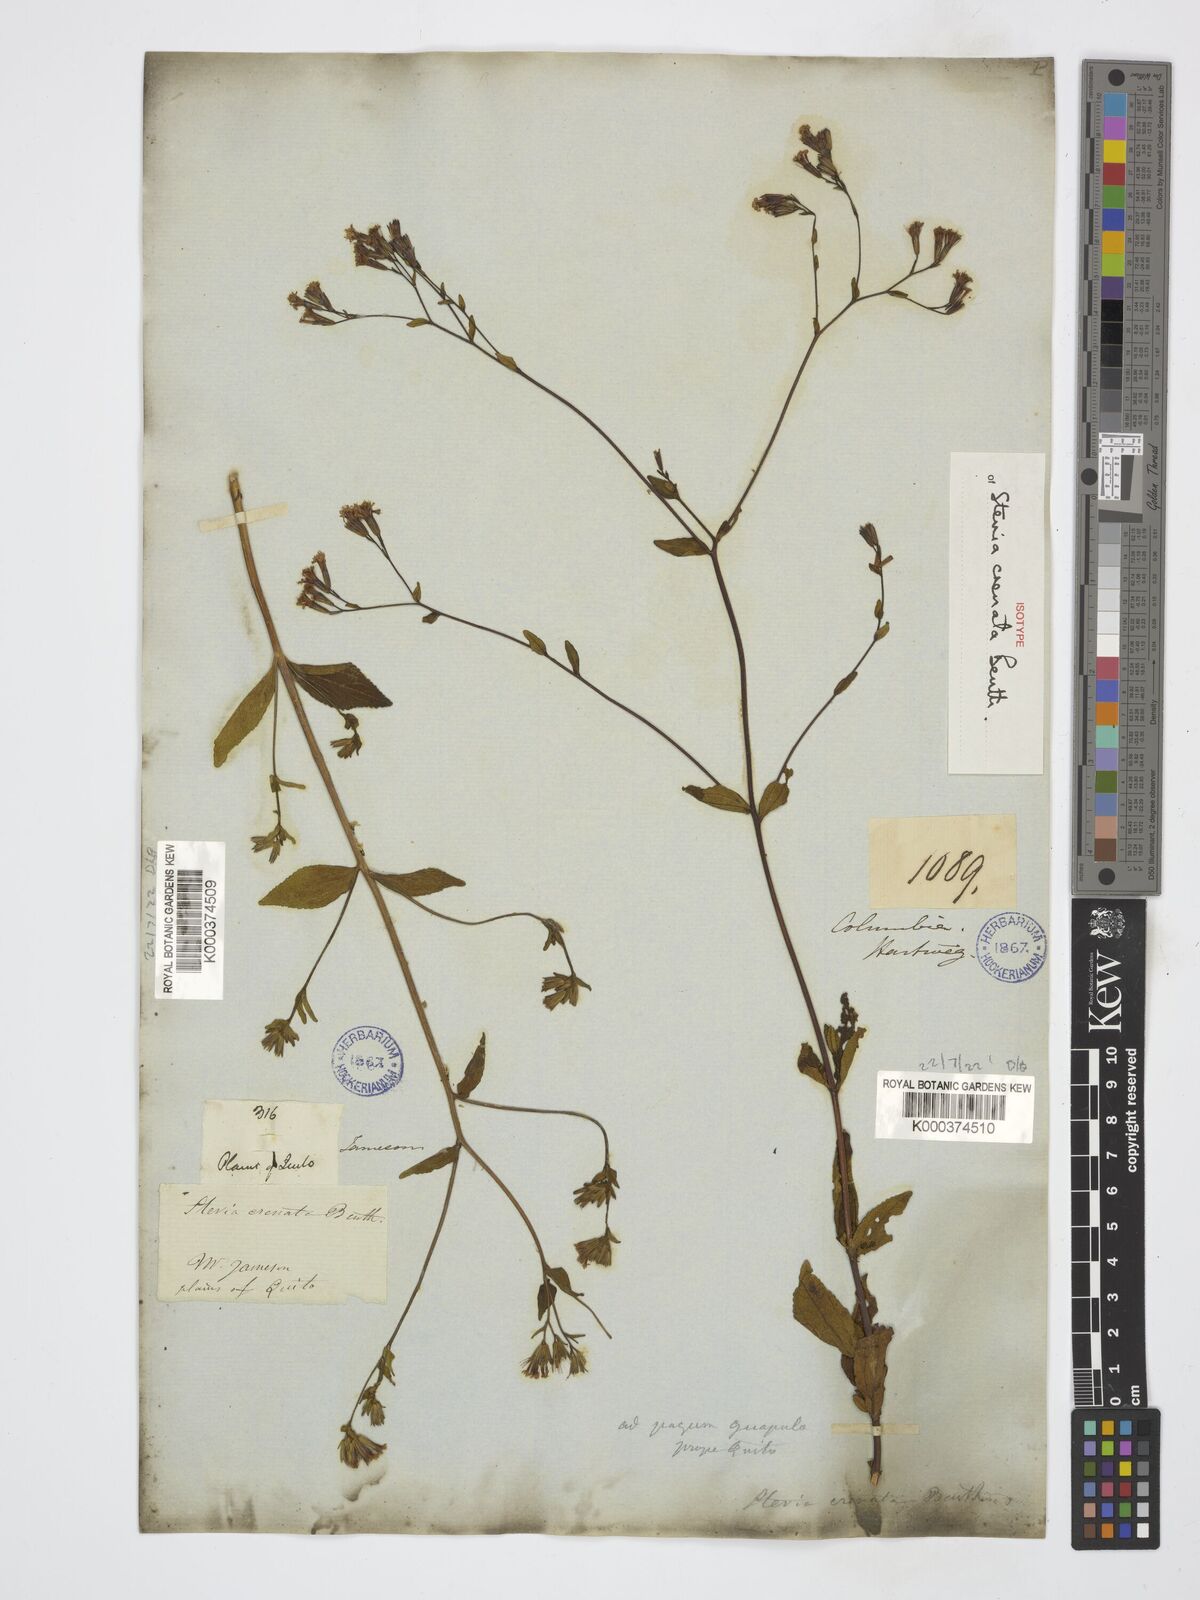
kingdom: Plantae
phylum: Tracheophyta
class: Magnoliopsida
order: Asterales
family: Asteraceae
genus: Stevia
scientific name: Stevia crenata
